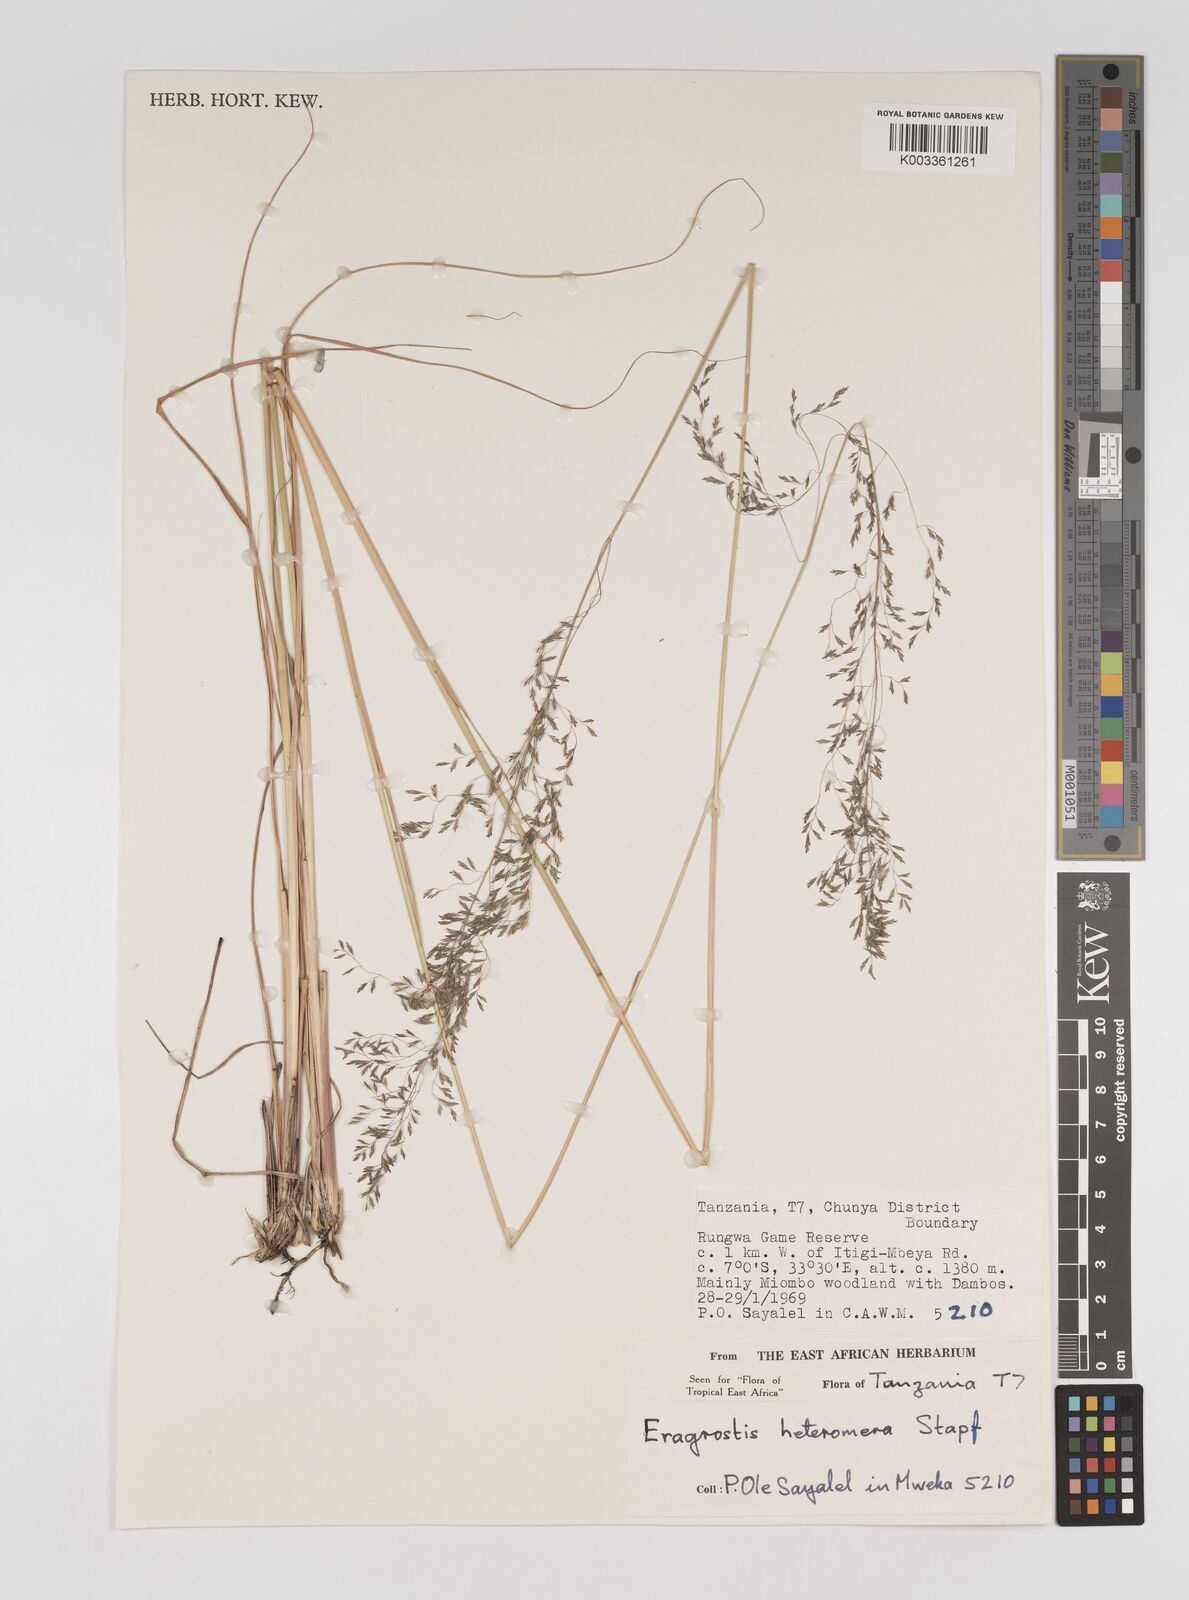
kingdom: Plantae
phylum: Tracheophyta
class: Liliopsida
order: Poales
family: Poaceae
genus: Eragrostis
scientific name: Eragrostis heteromera
